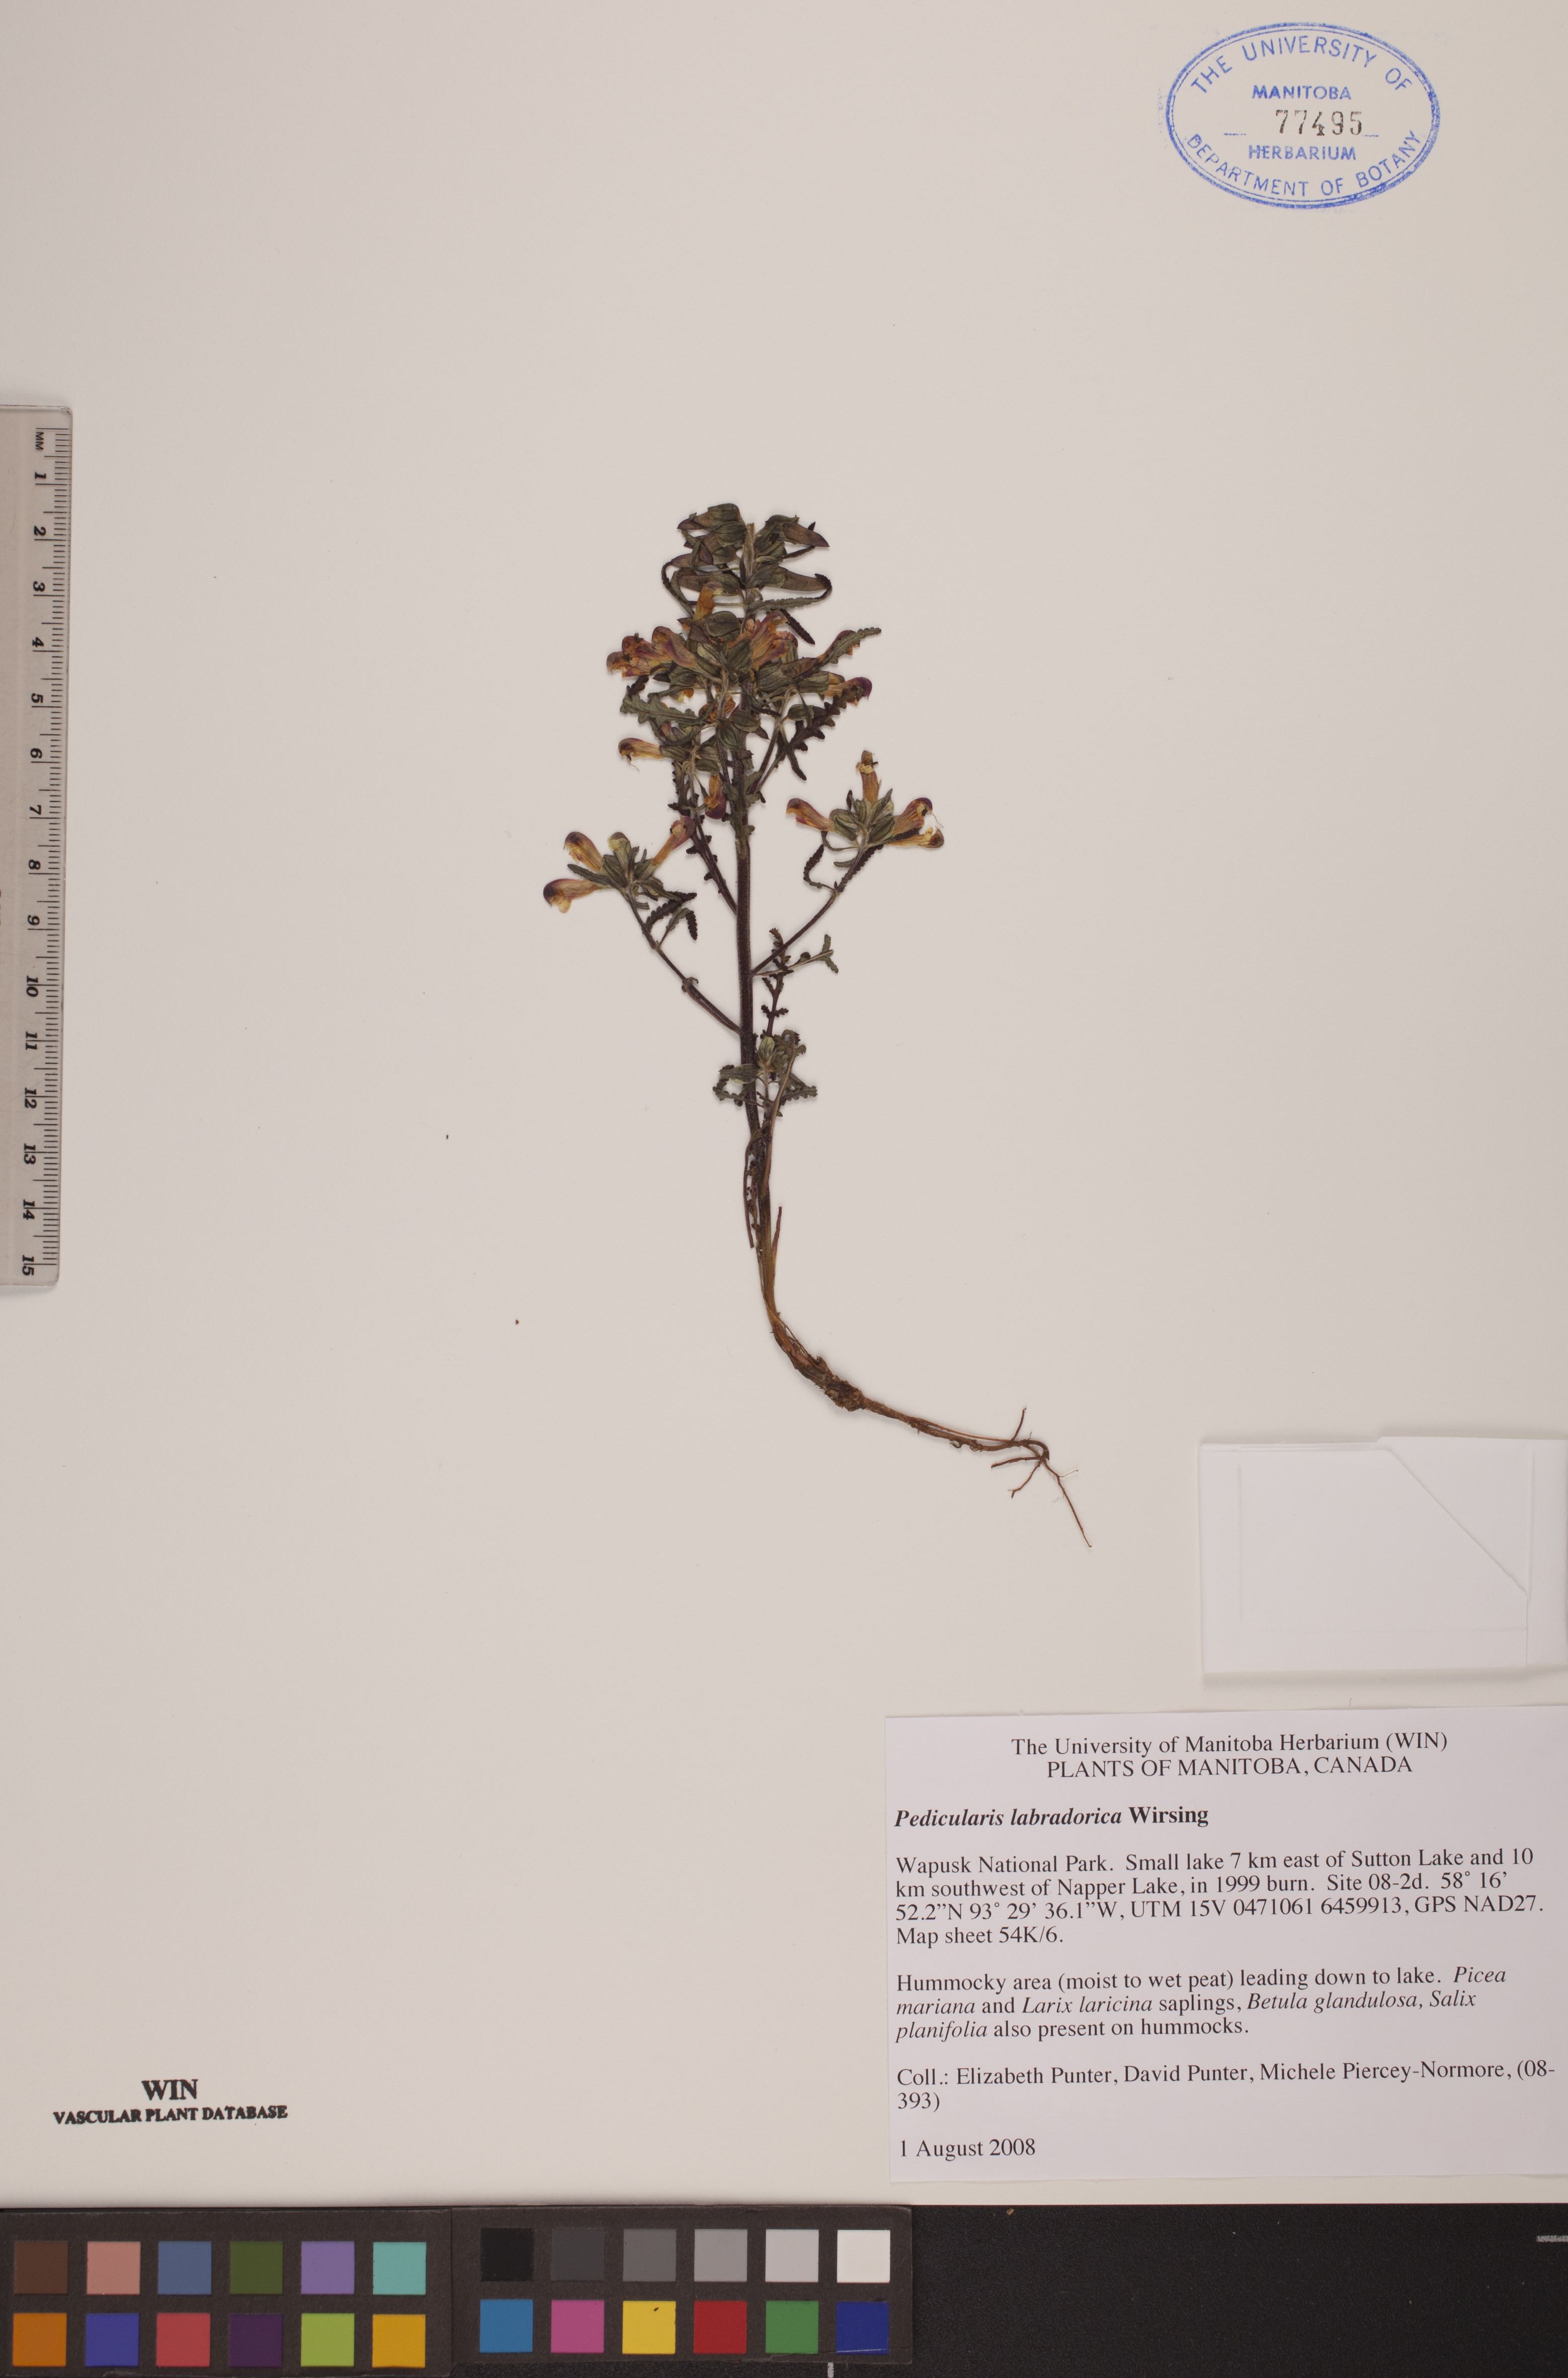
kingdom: Plantae
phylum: Tracheophyta
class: Magnoliopsida
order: Lamiales
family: Orobanchaceae
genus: Pedicularis
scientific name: Pedicularis labradorica
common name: Labrador lousewort
